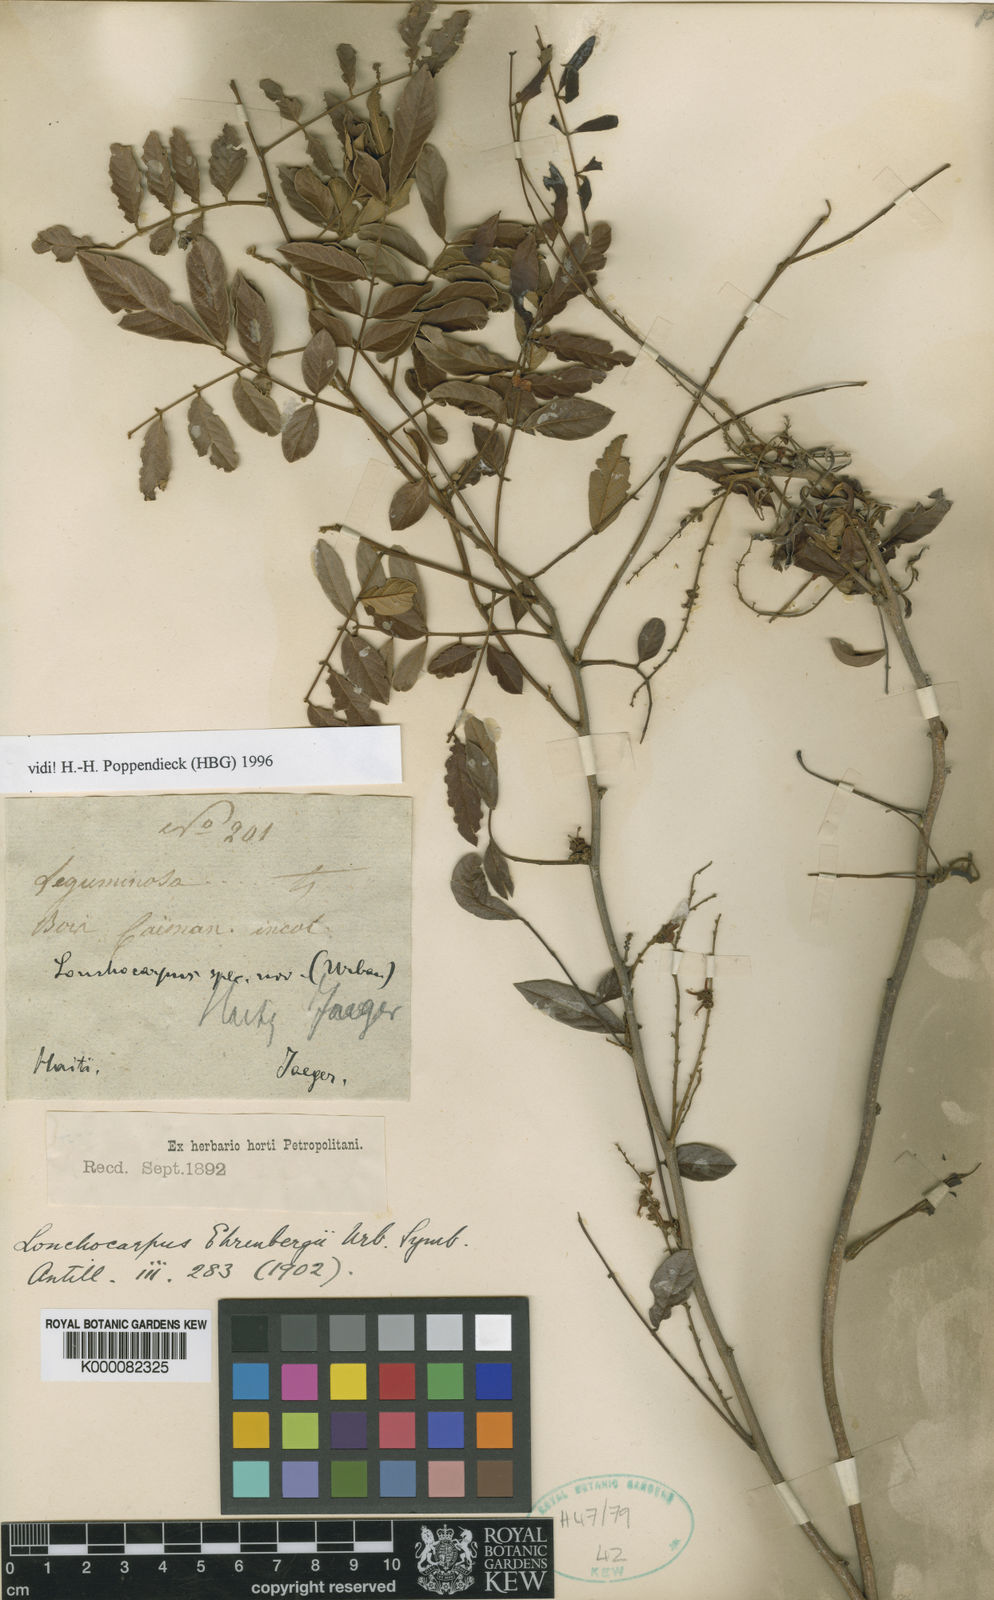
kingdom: Plantae
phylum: Tracheophyta
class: Magnoliopsida
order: Fabales
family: Fabaceae
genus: Lonchocarpus
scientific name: Lonchocarpus neurophyllus
